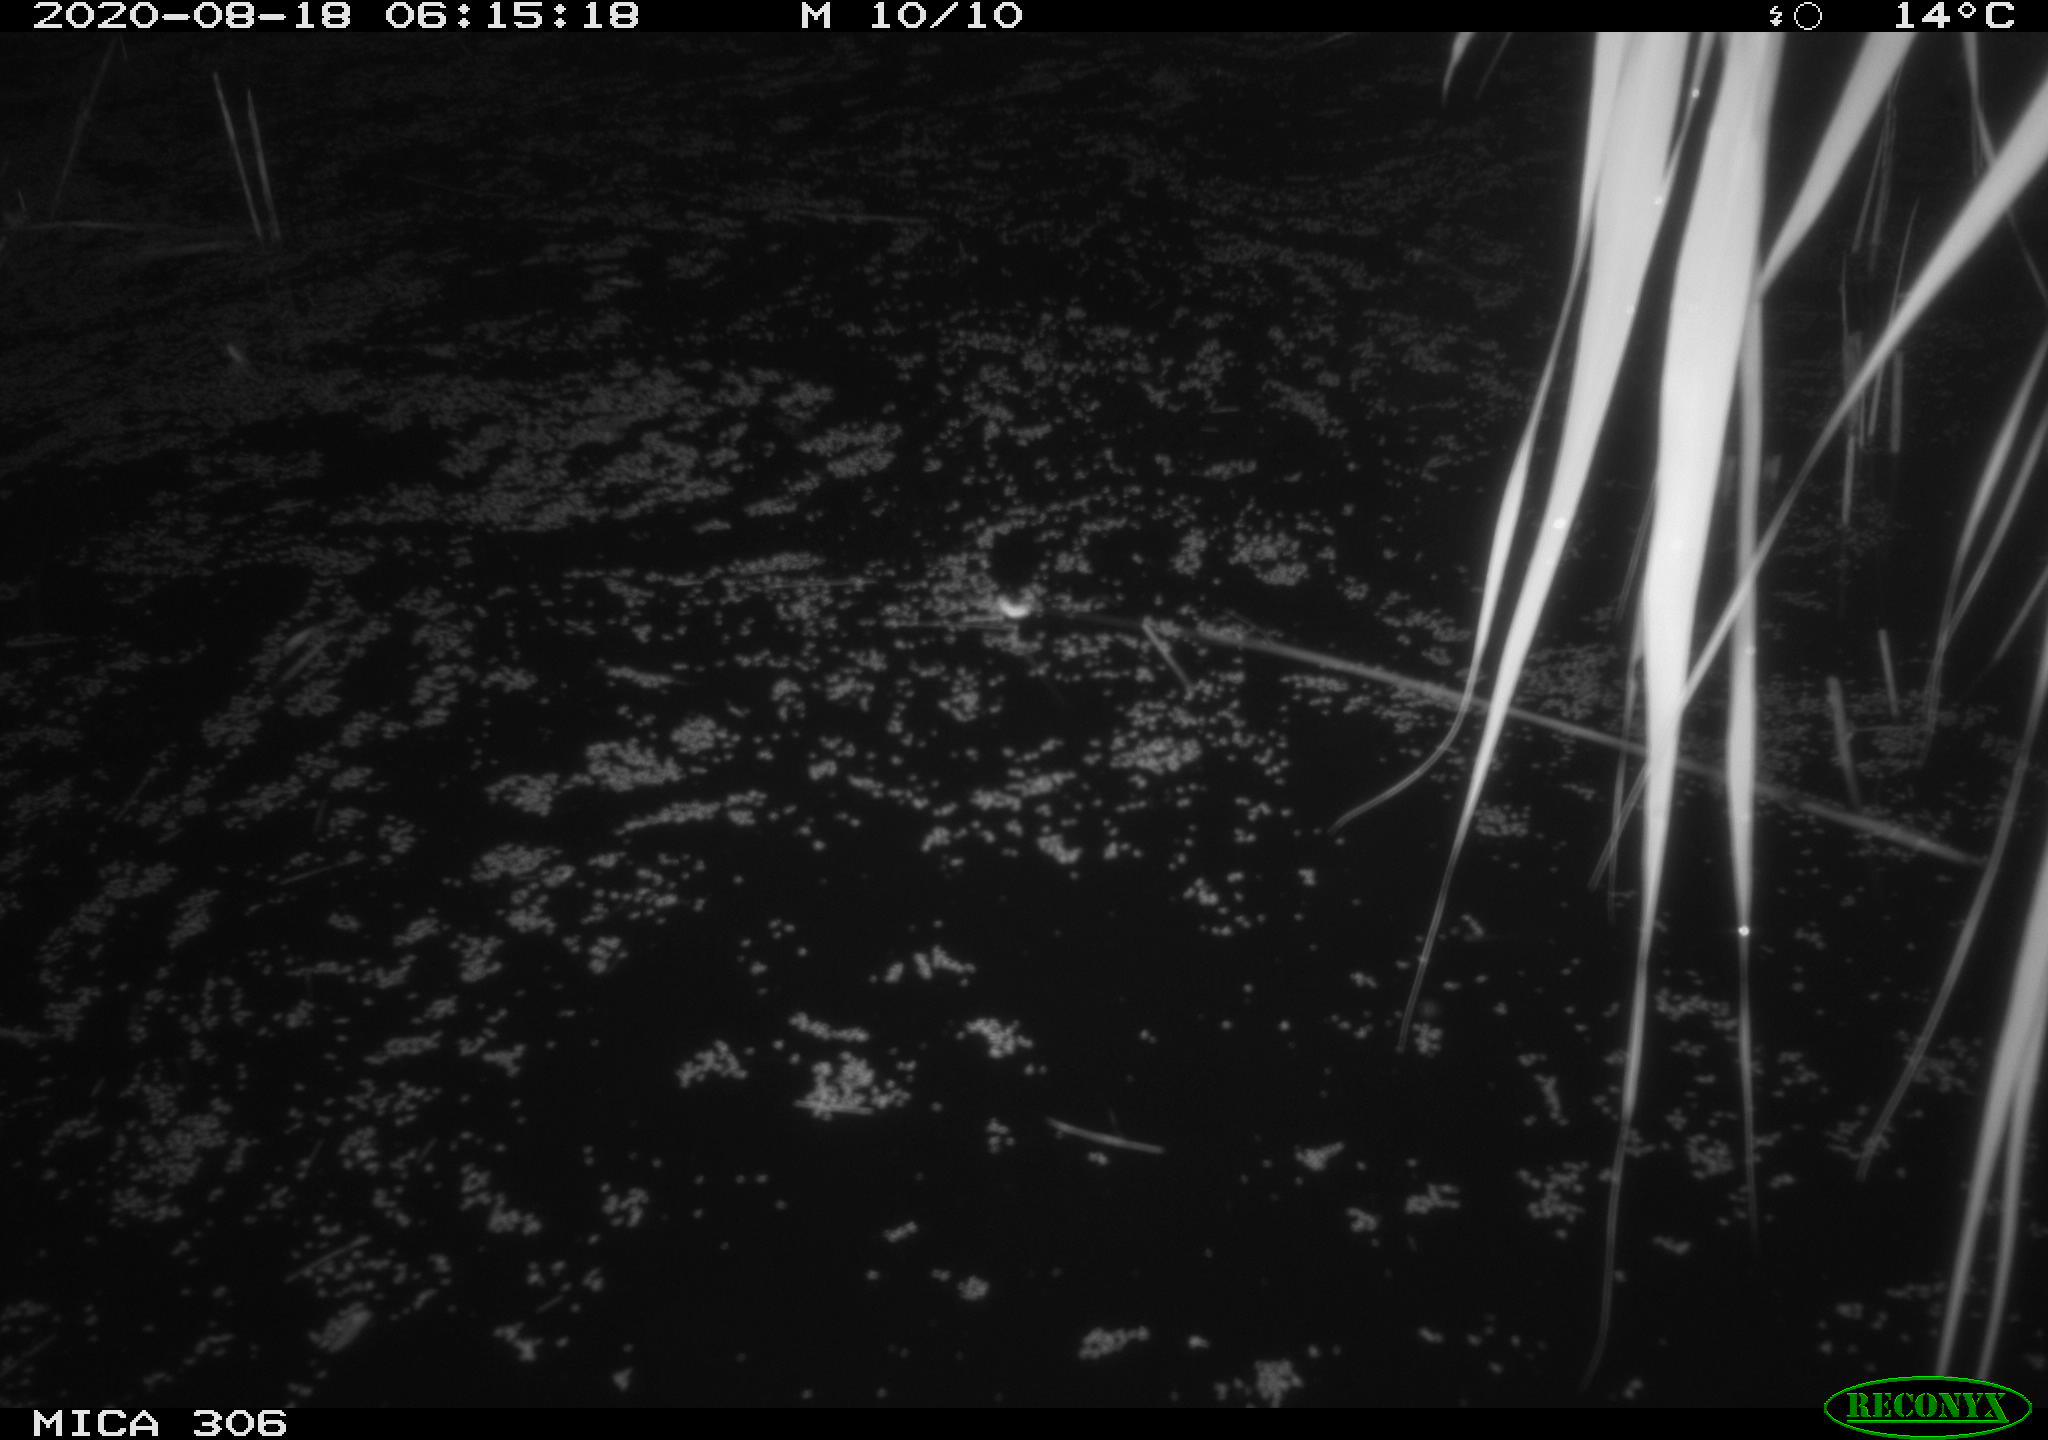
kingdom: Animalia
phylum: Chordata
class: Mammalia
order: Rodentia
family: Muridae
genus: Rattus
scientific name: Rattus norvegicus
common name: Brown rat
